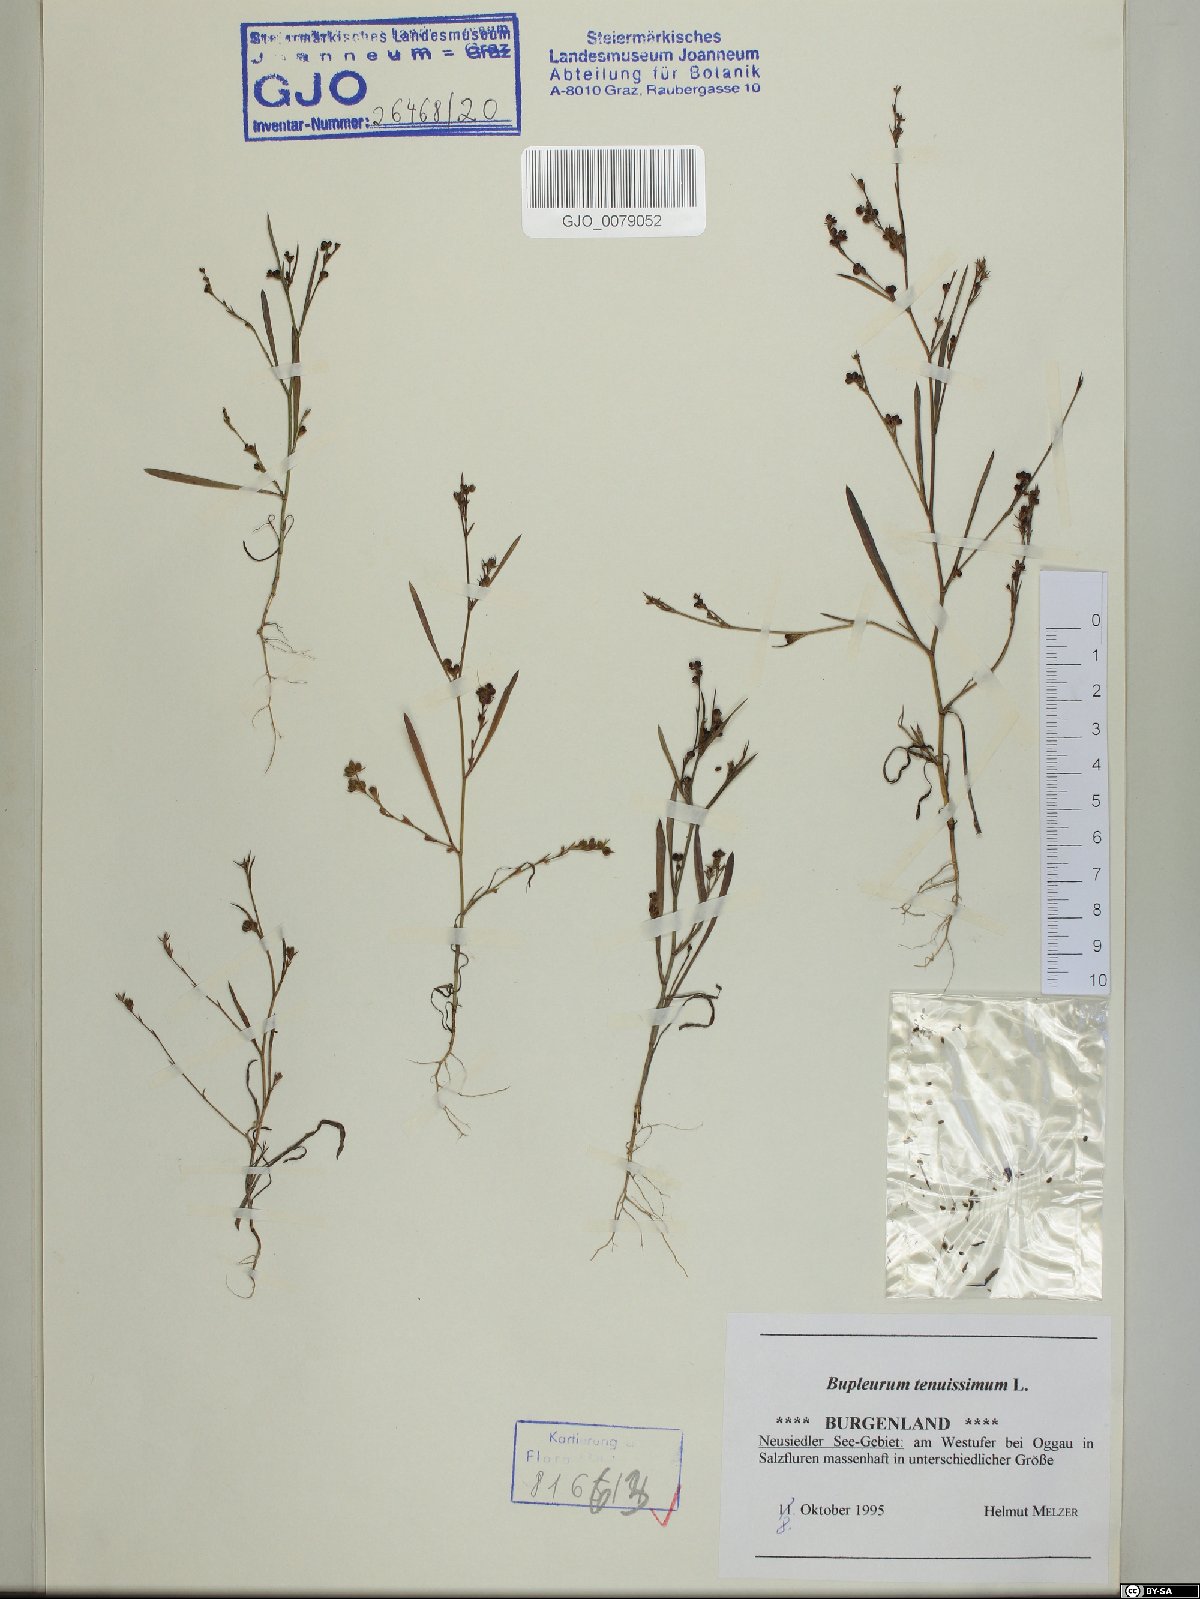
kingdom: Plantae
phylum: Tracheophyta
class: Magnoliopsida
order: Apiales
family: Apiaceae
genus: Bupleurum
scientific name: Bupleurum tenuissimum
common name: Slender hare's-ear
